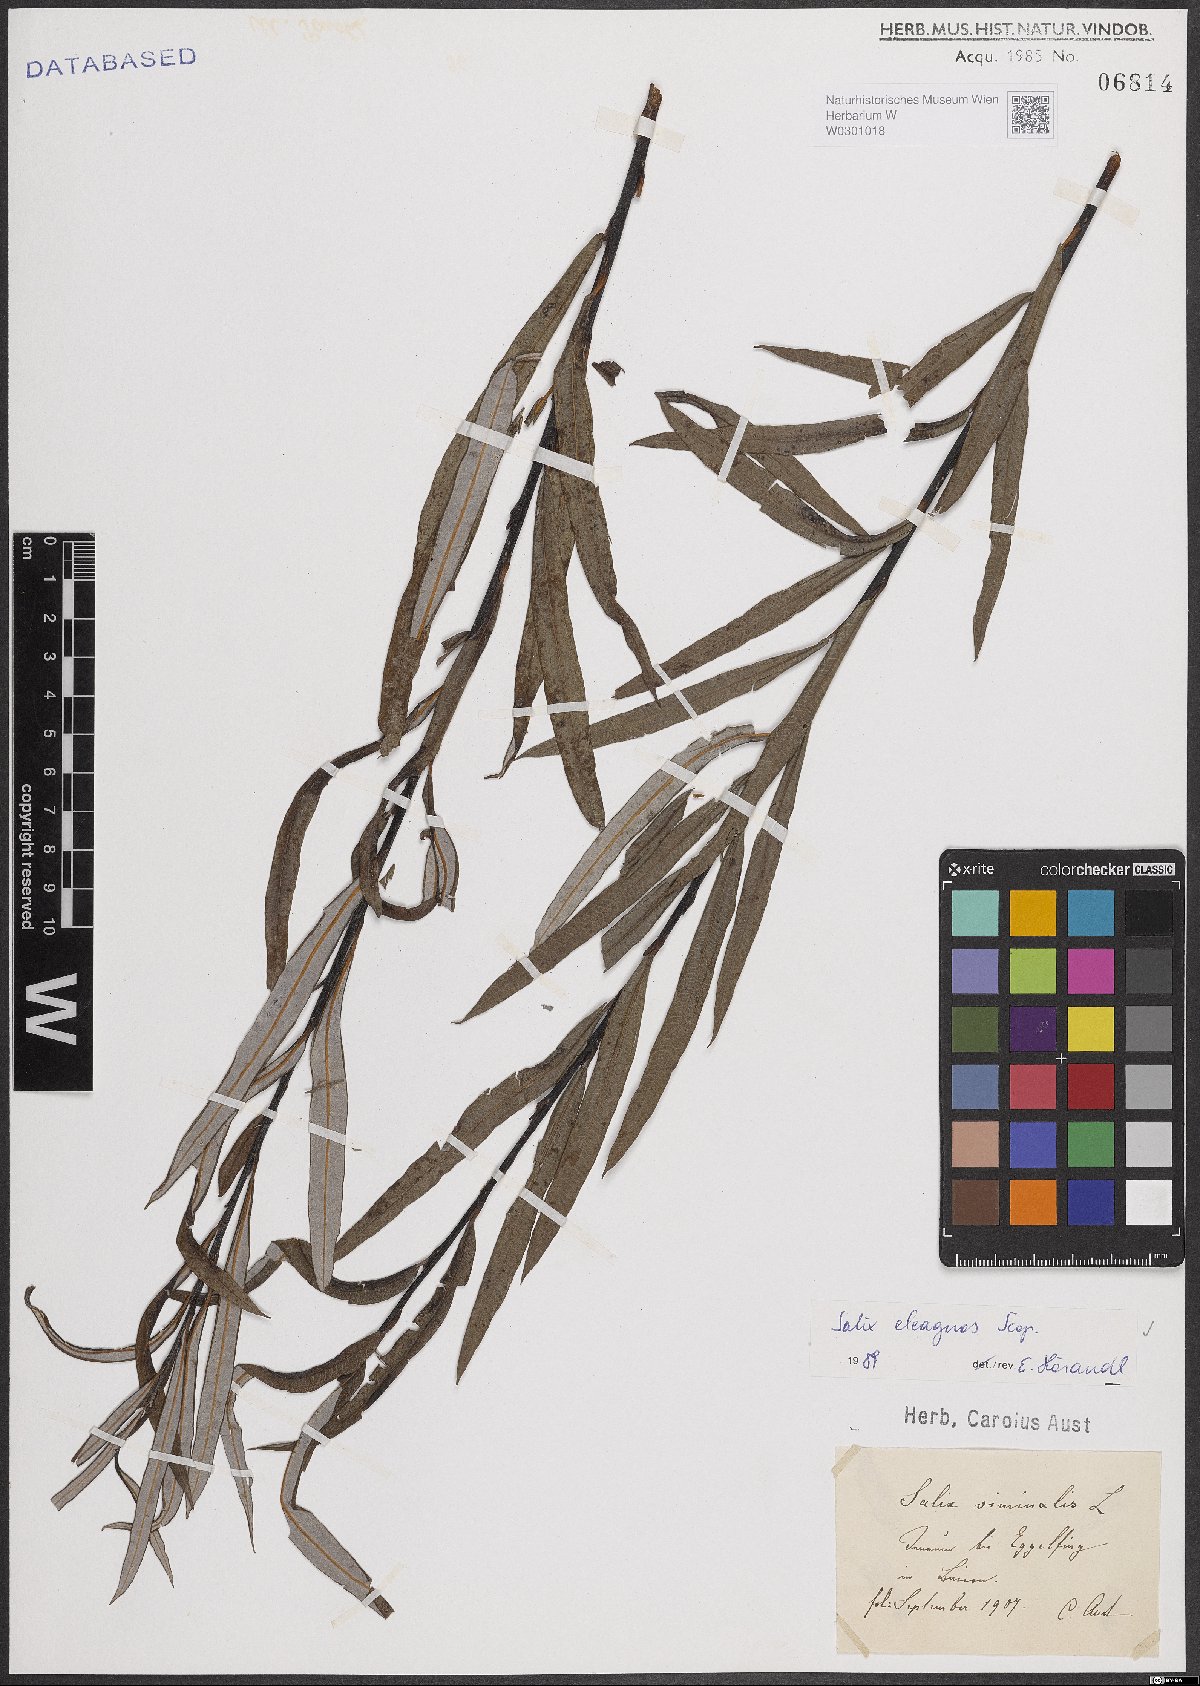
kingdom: Plantae
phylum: Tracheophyta
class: Magnoliopsida
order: Malpighiales
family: Salicaceae
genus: Salix
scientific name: Salix eleagnos
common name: Elaeagnus willow
